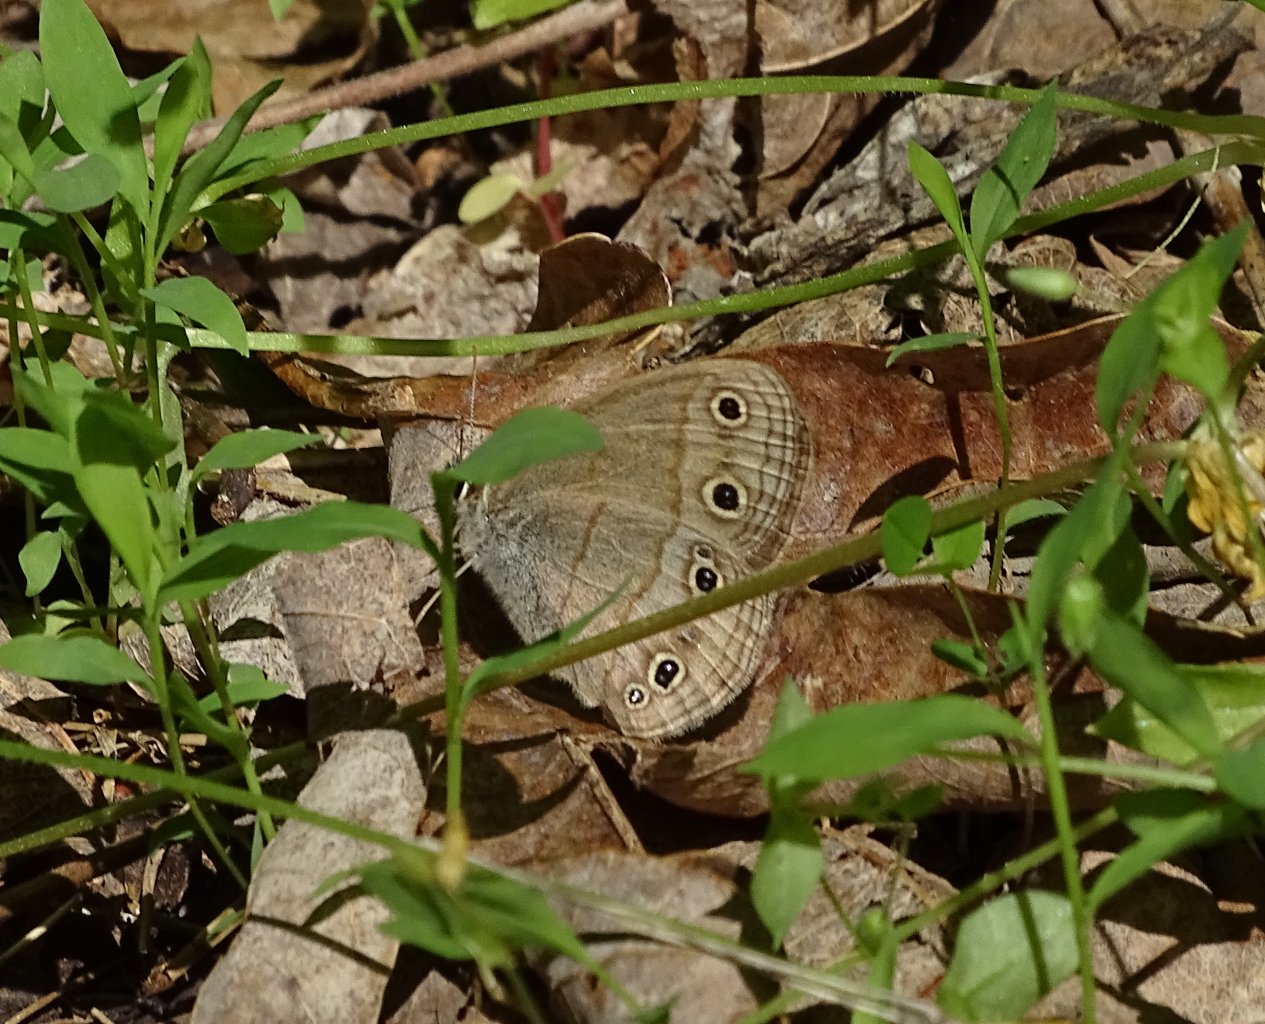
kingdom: Animalia
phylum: Arthropoda
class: Insecta
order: Lepidoptera
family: Nymphalidae
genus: Euptychia
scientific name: Euptychia cymela
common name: Little Wood Satyr
